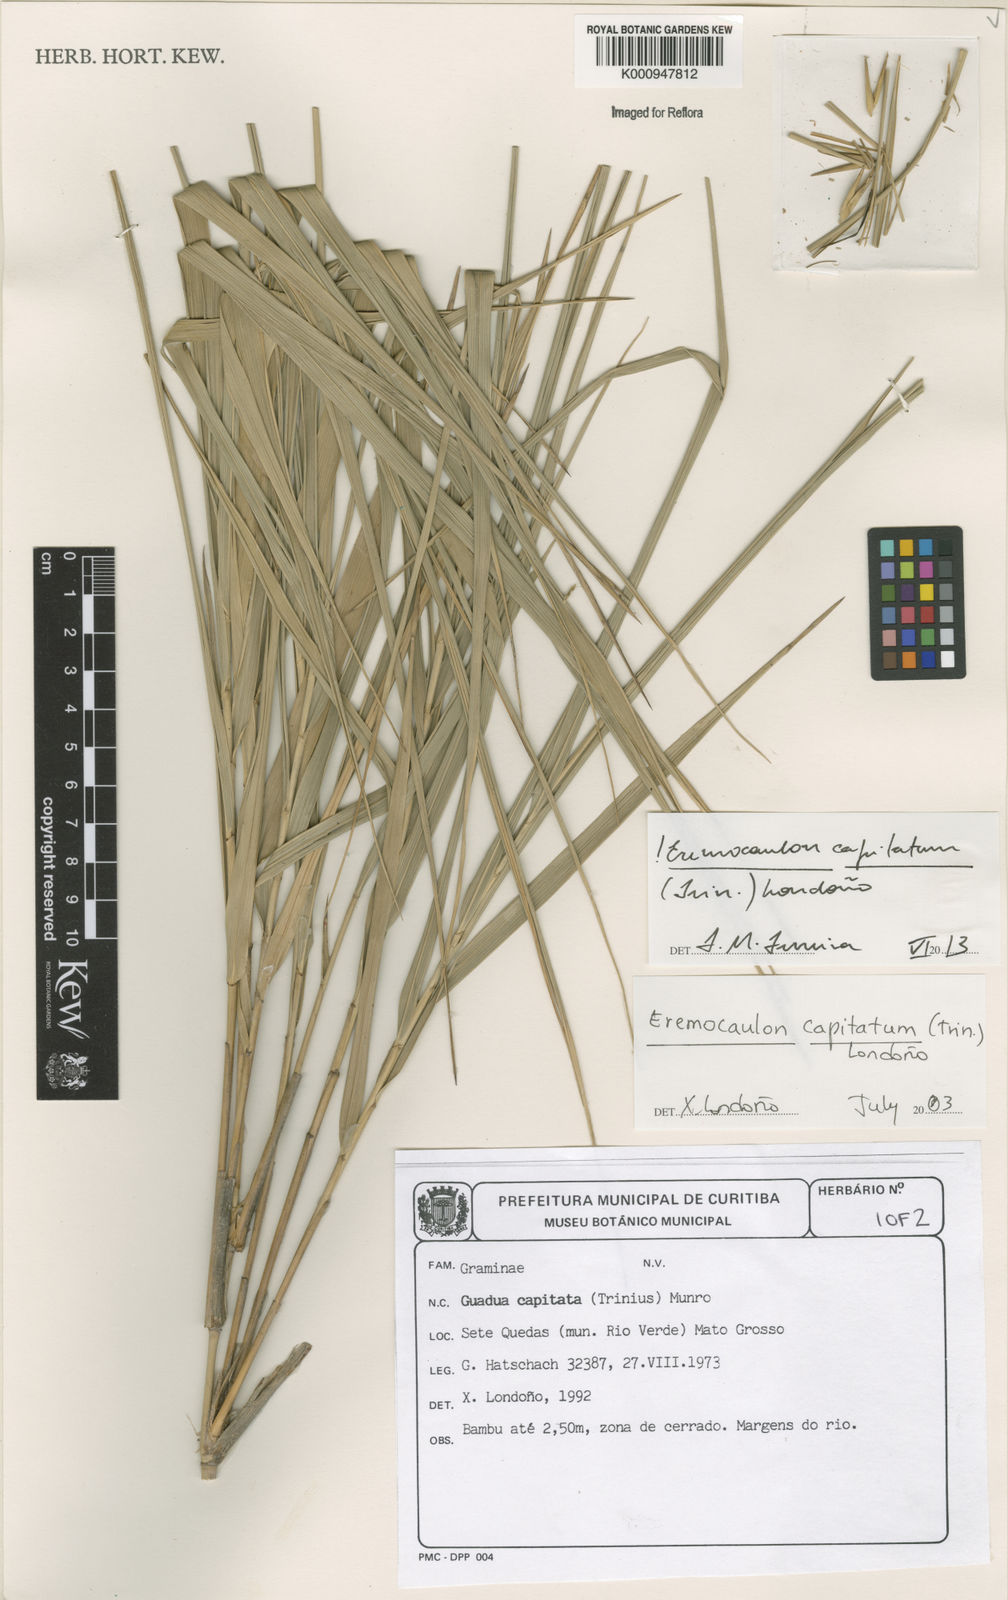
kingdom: Plantae
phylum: Tracheophyta
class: Liliopsida
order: Poales
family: Poaceae
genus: Eremocaulon
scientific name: Eremocaulon
